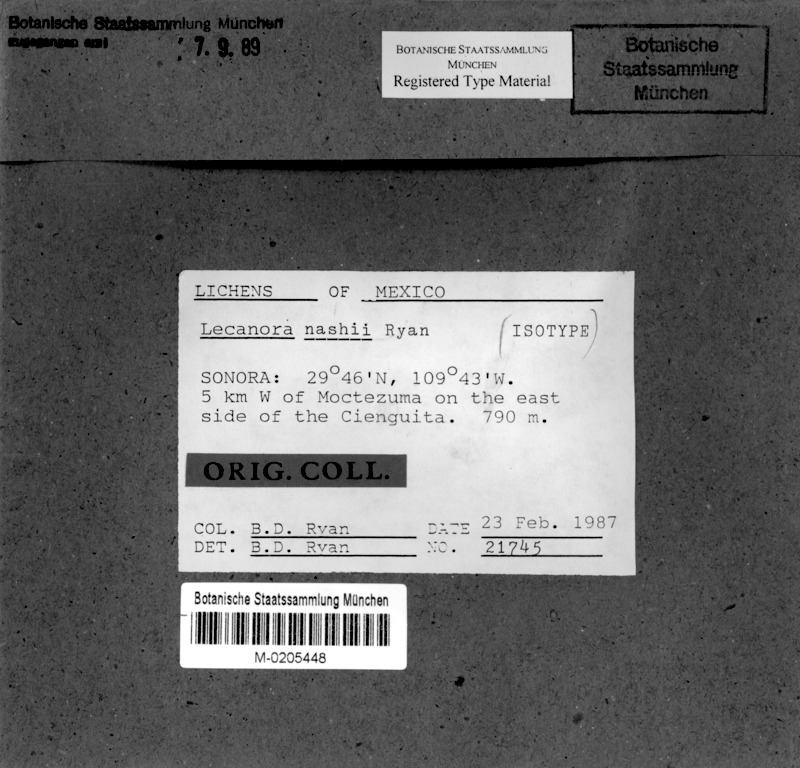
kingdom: Fungi
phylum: Ascomycota
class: Lecanoromycetes
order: Lecanorales
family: Lecanoraceae
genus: Protoparmeliopsis
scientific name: Protoparmeliopsis nashii
